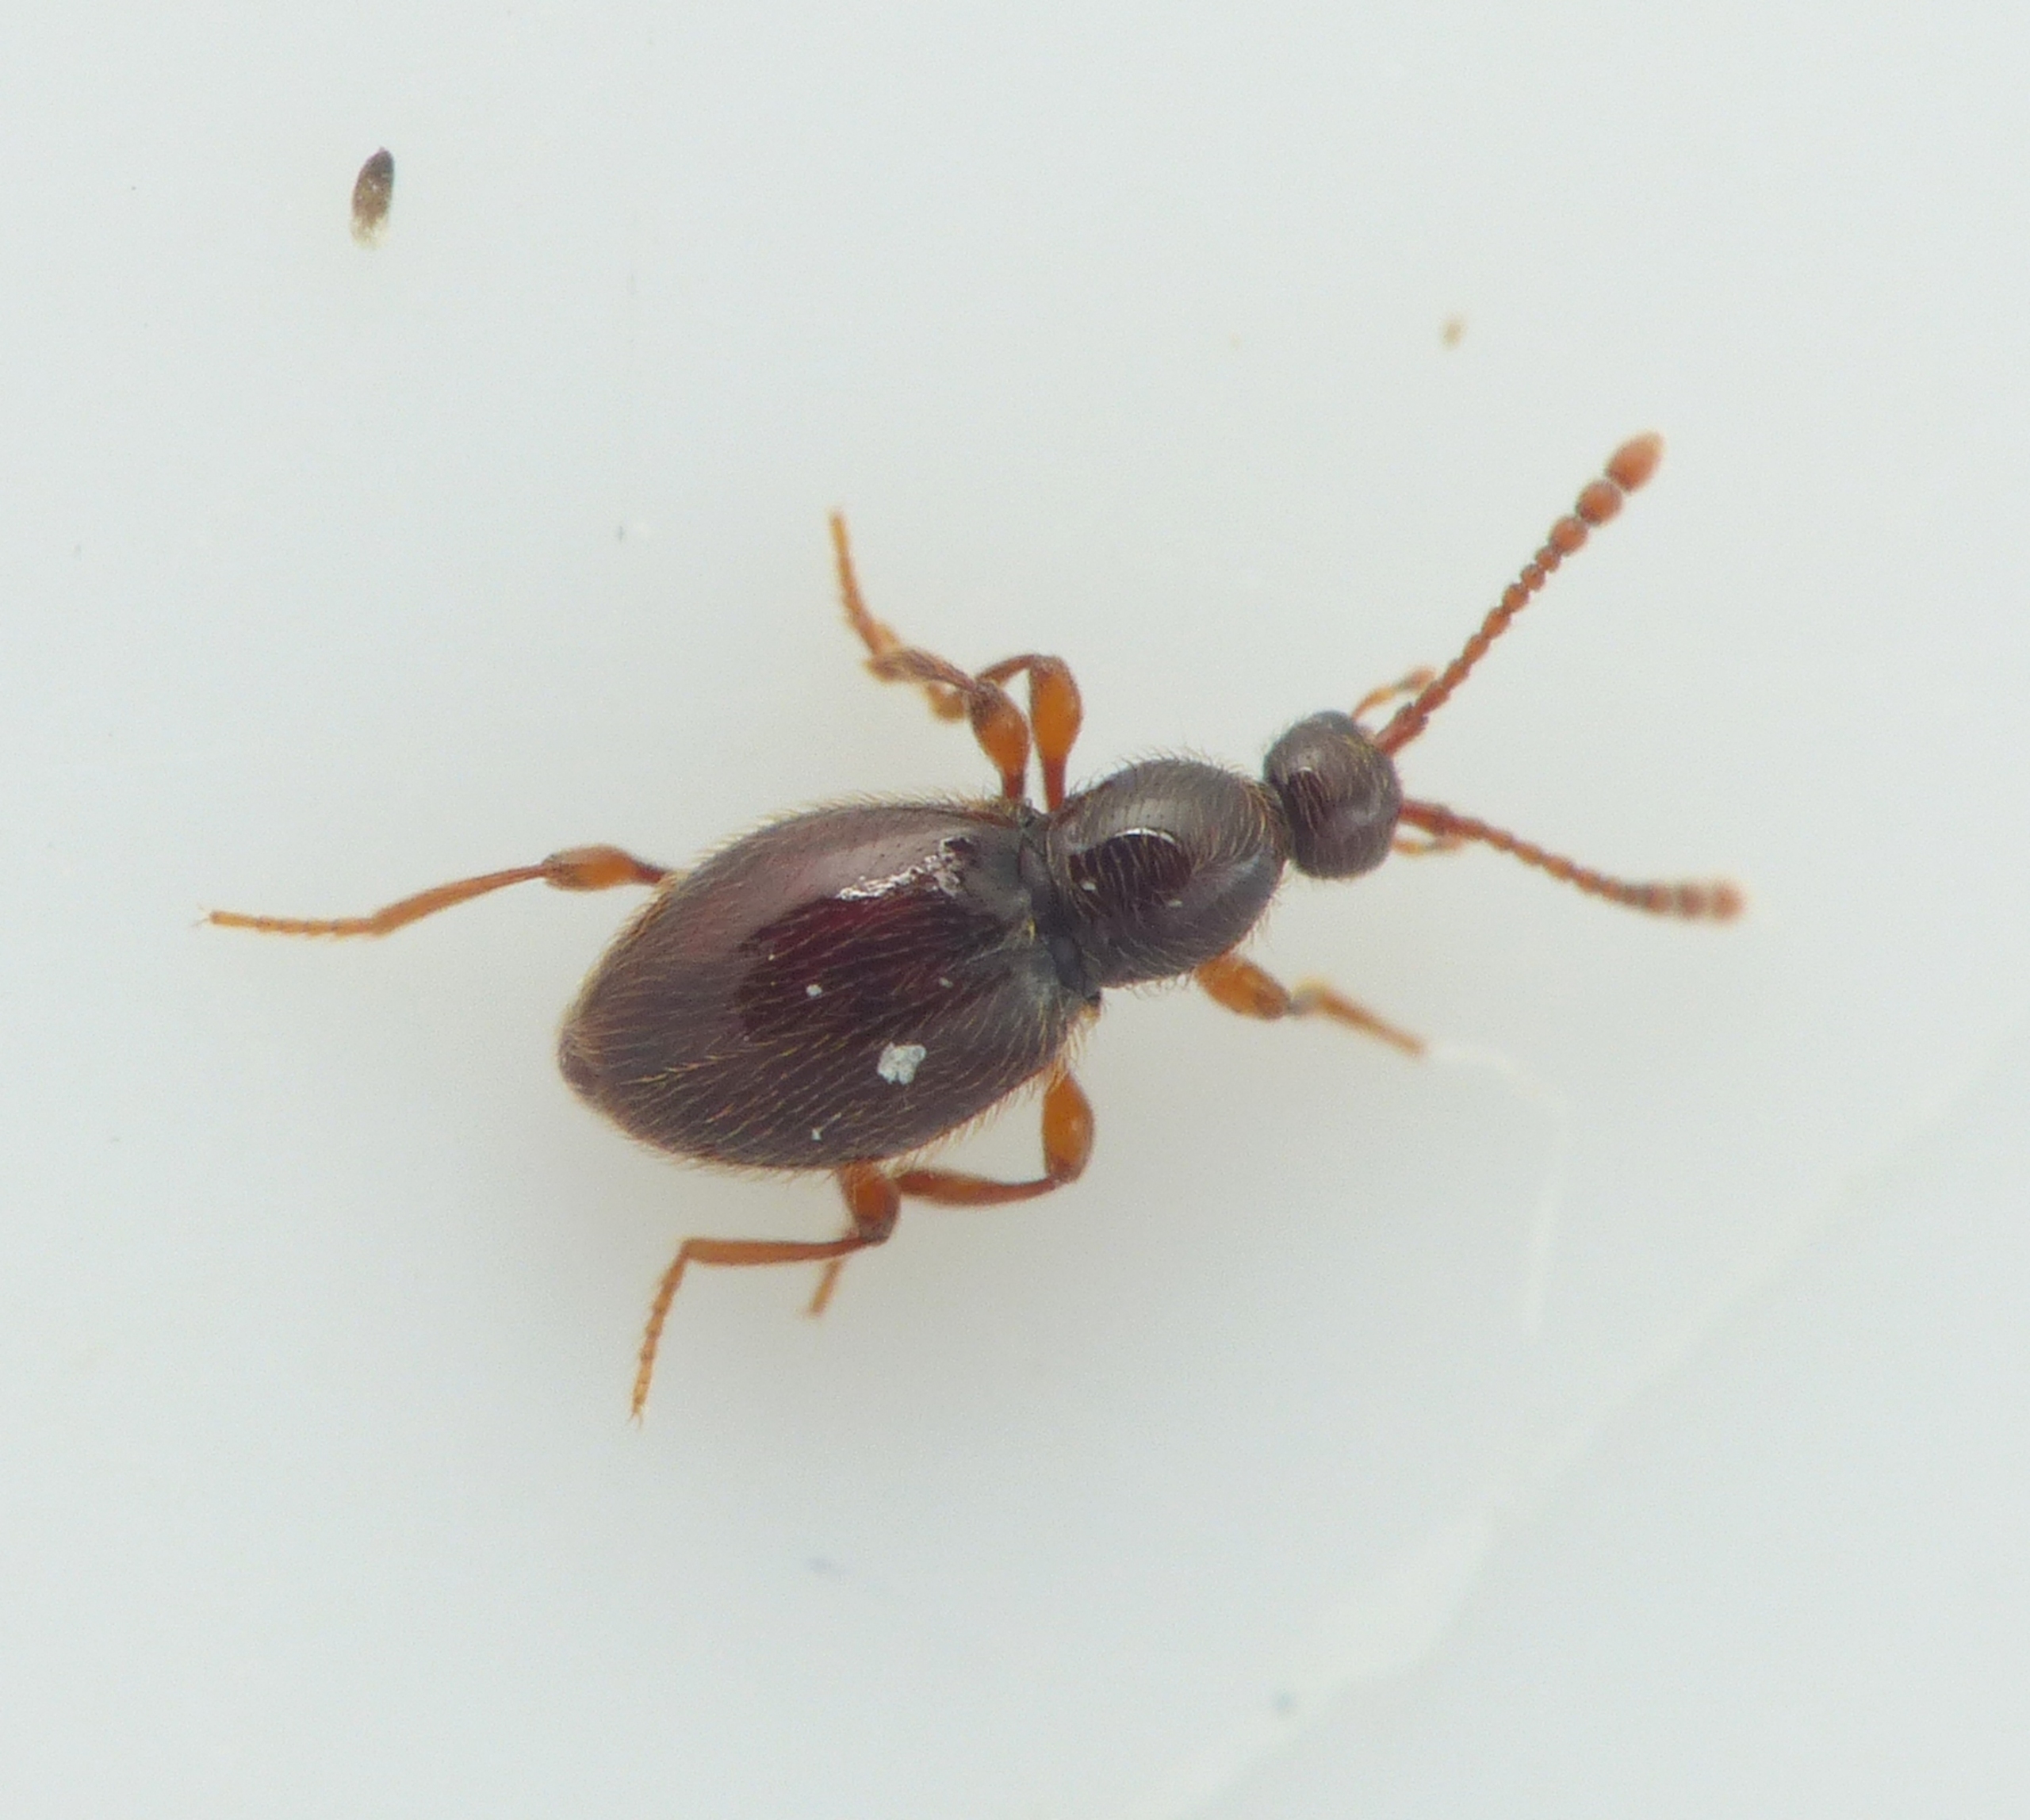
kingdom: Animalia
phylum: Arthropoda
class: Insecta
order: Coleoptera
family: Staphylinidae
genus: Scydmaenus
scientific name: Scydmaenus tarsatus
